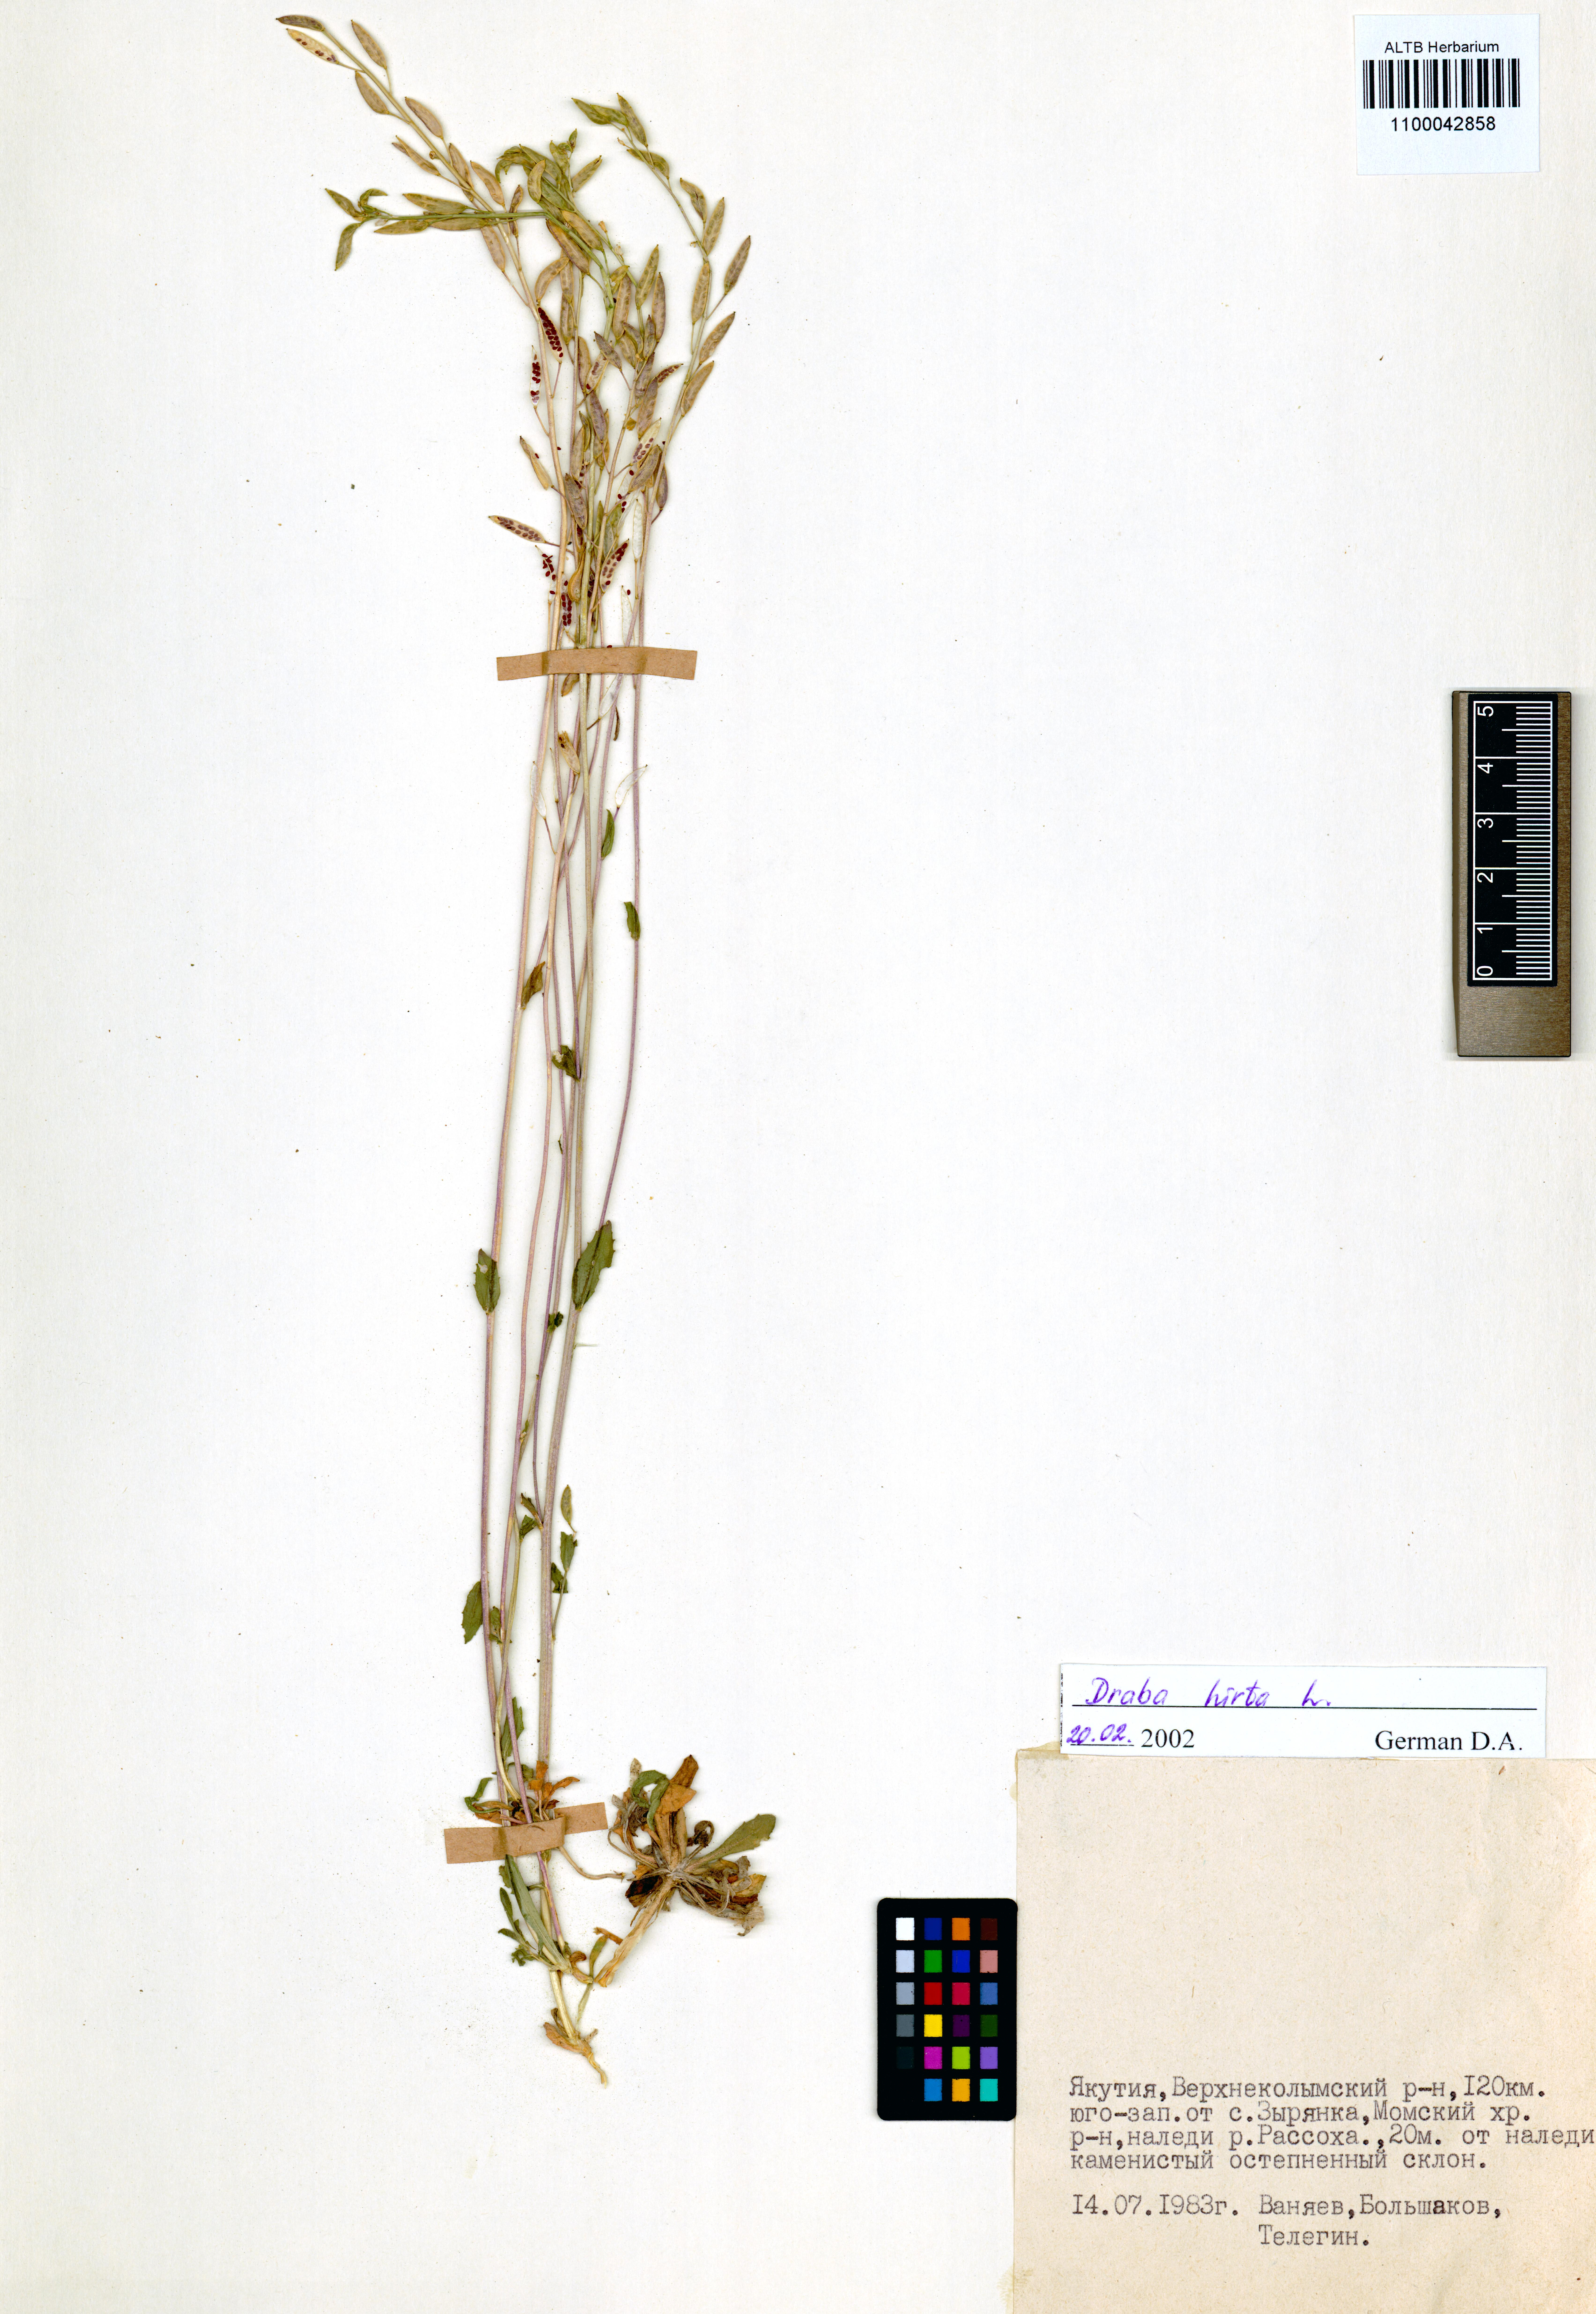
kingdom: Plantae
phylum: Tracheophyta
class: Magnoliopsida
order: Brassicales
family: Brassicaceae
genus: Draba
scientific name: Draba glabella
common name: Glaucous draba
